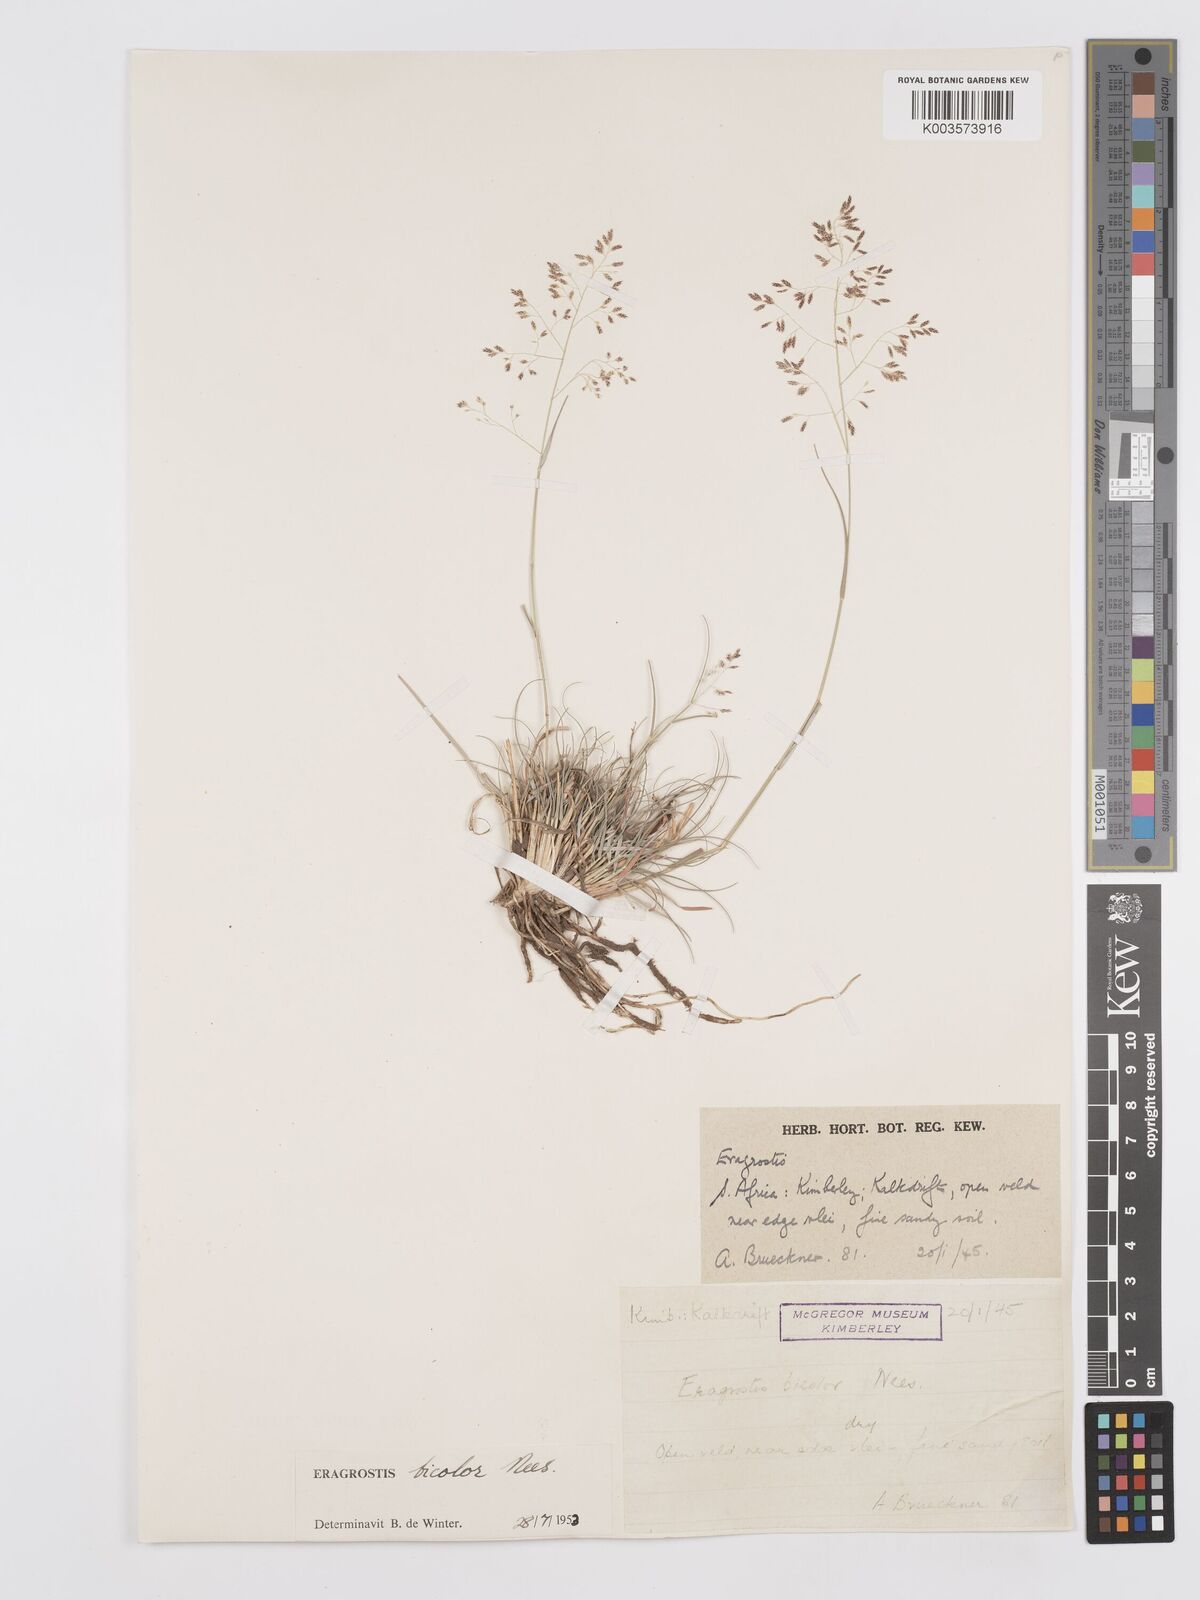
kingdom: Plantae
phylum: Tracheophyta
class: Liliopsida
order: Poales
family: Poaceae
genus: Eragrostis
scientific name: Eragrostis
